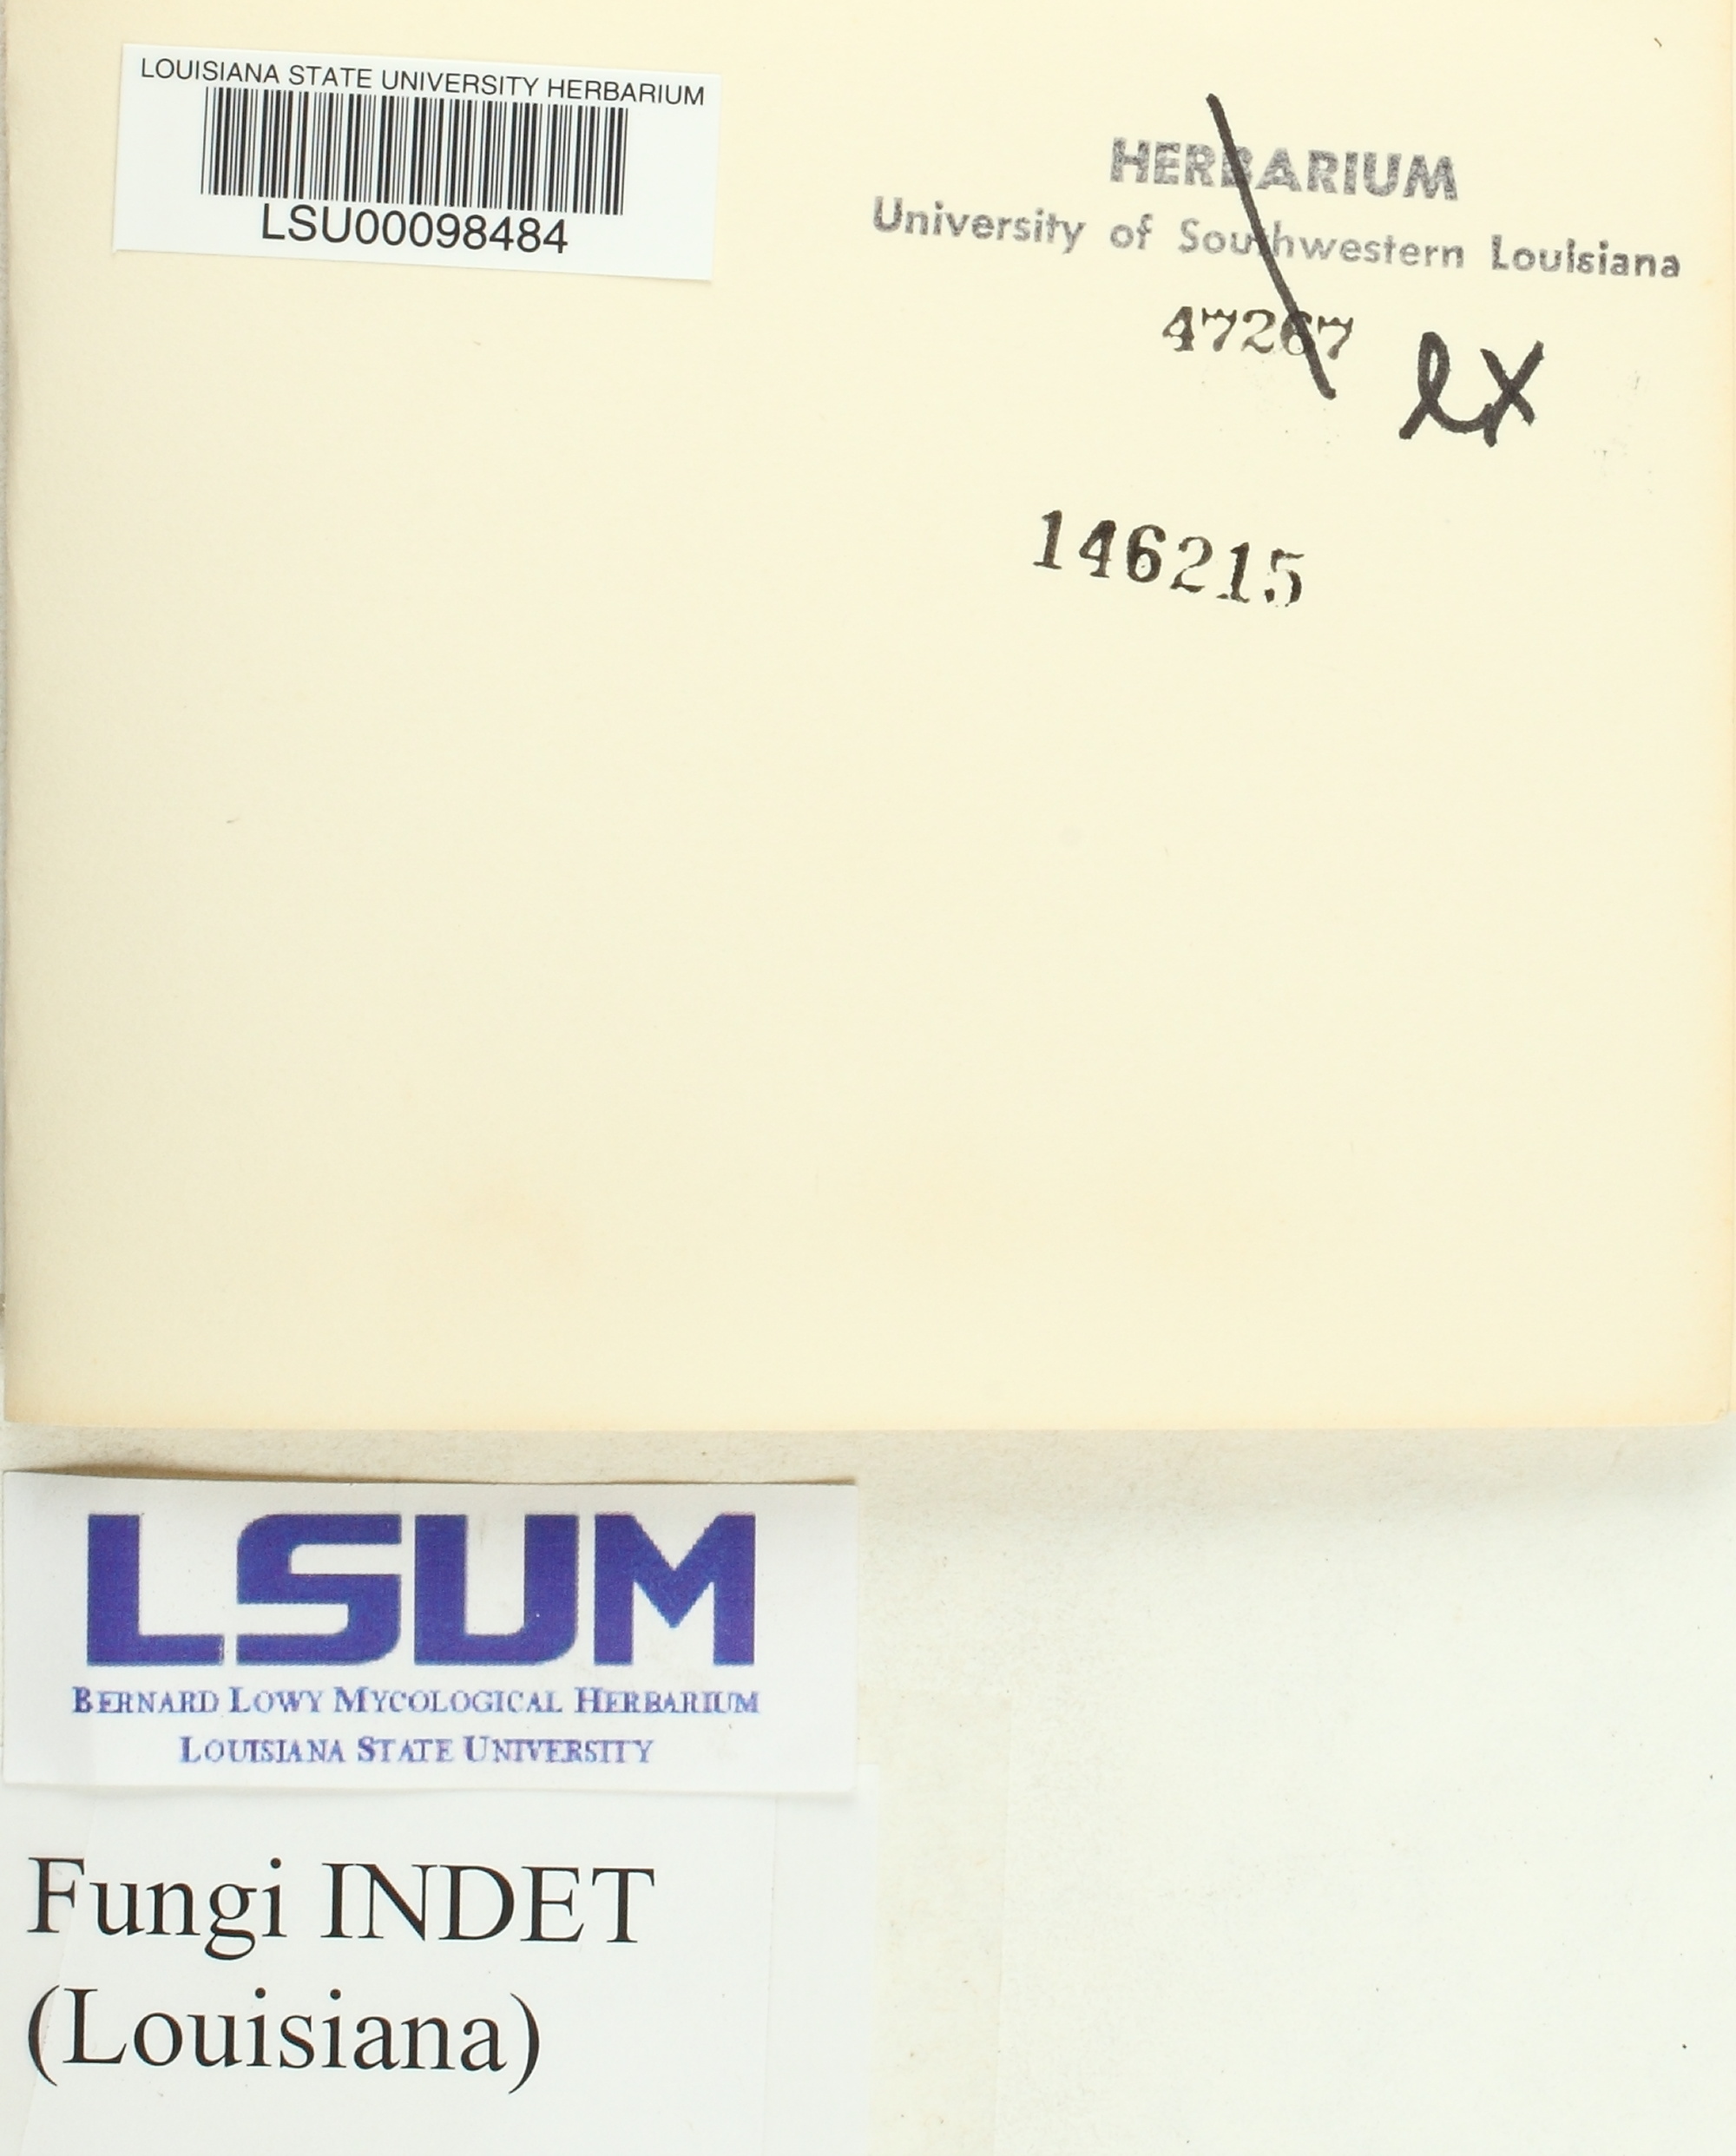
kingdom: Fungi
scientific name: Fungi
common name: Fungi
